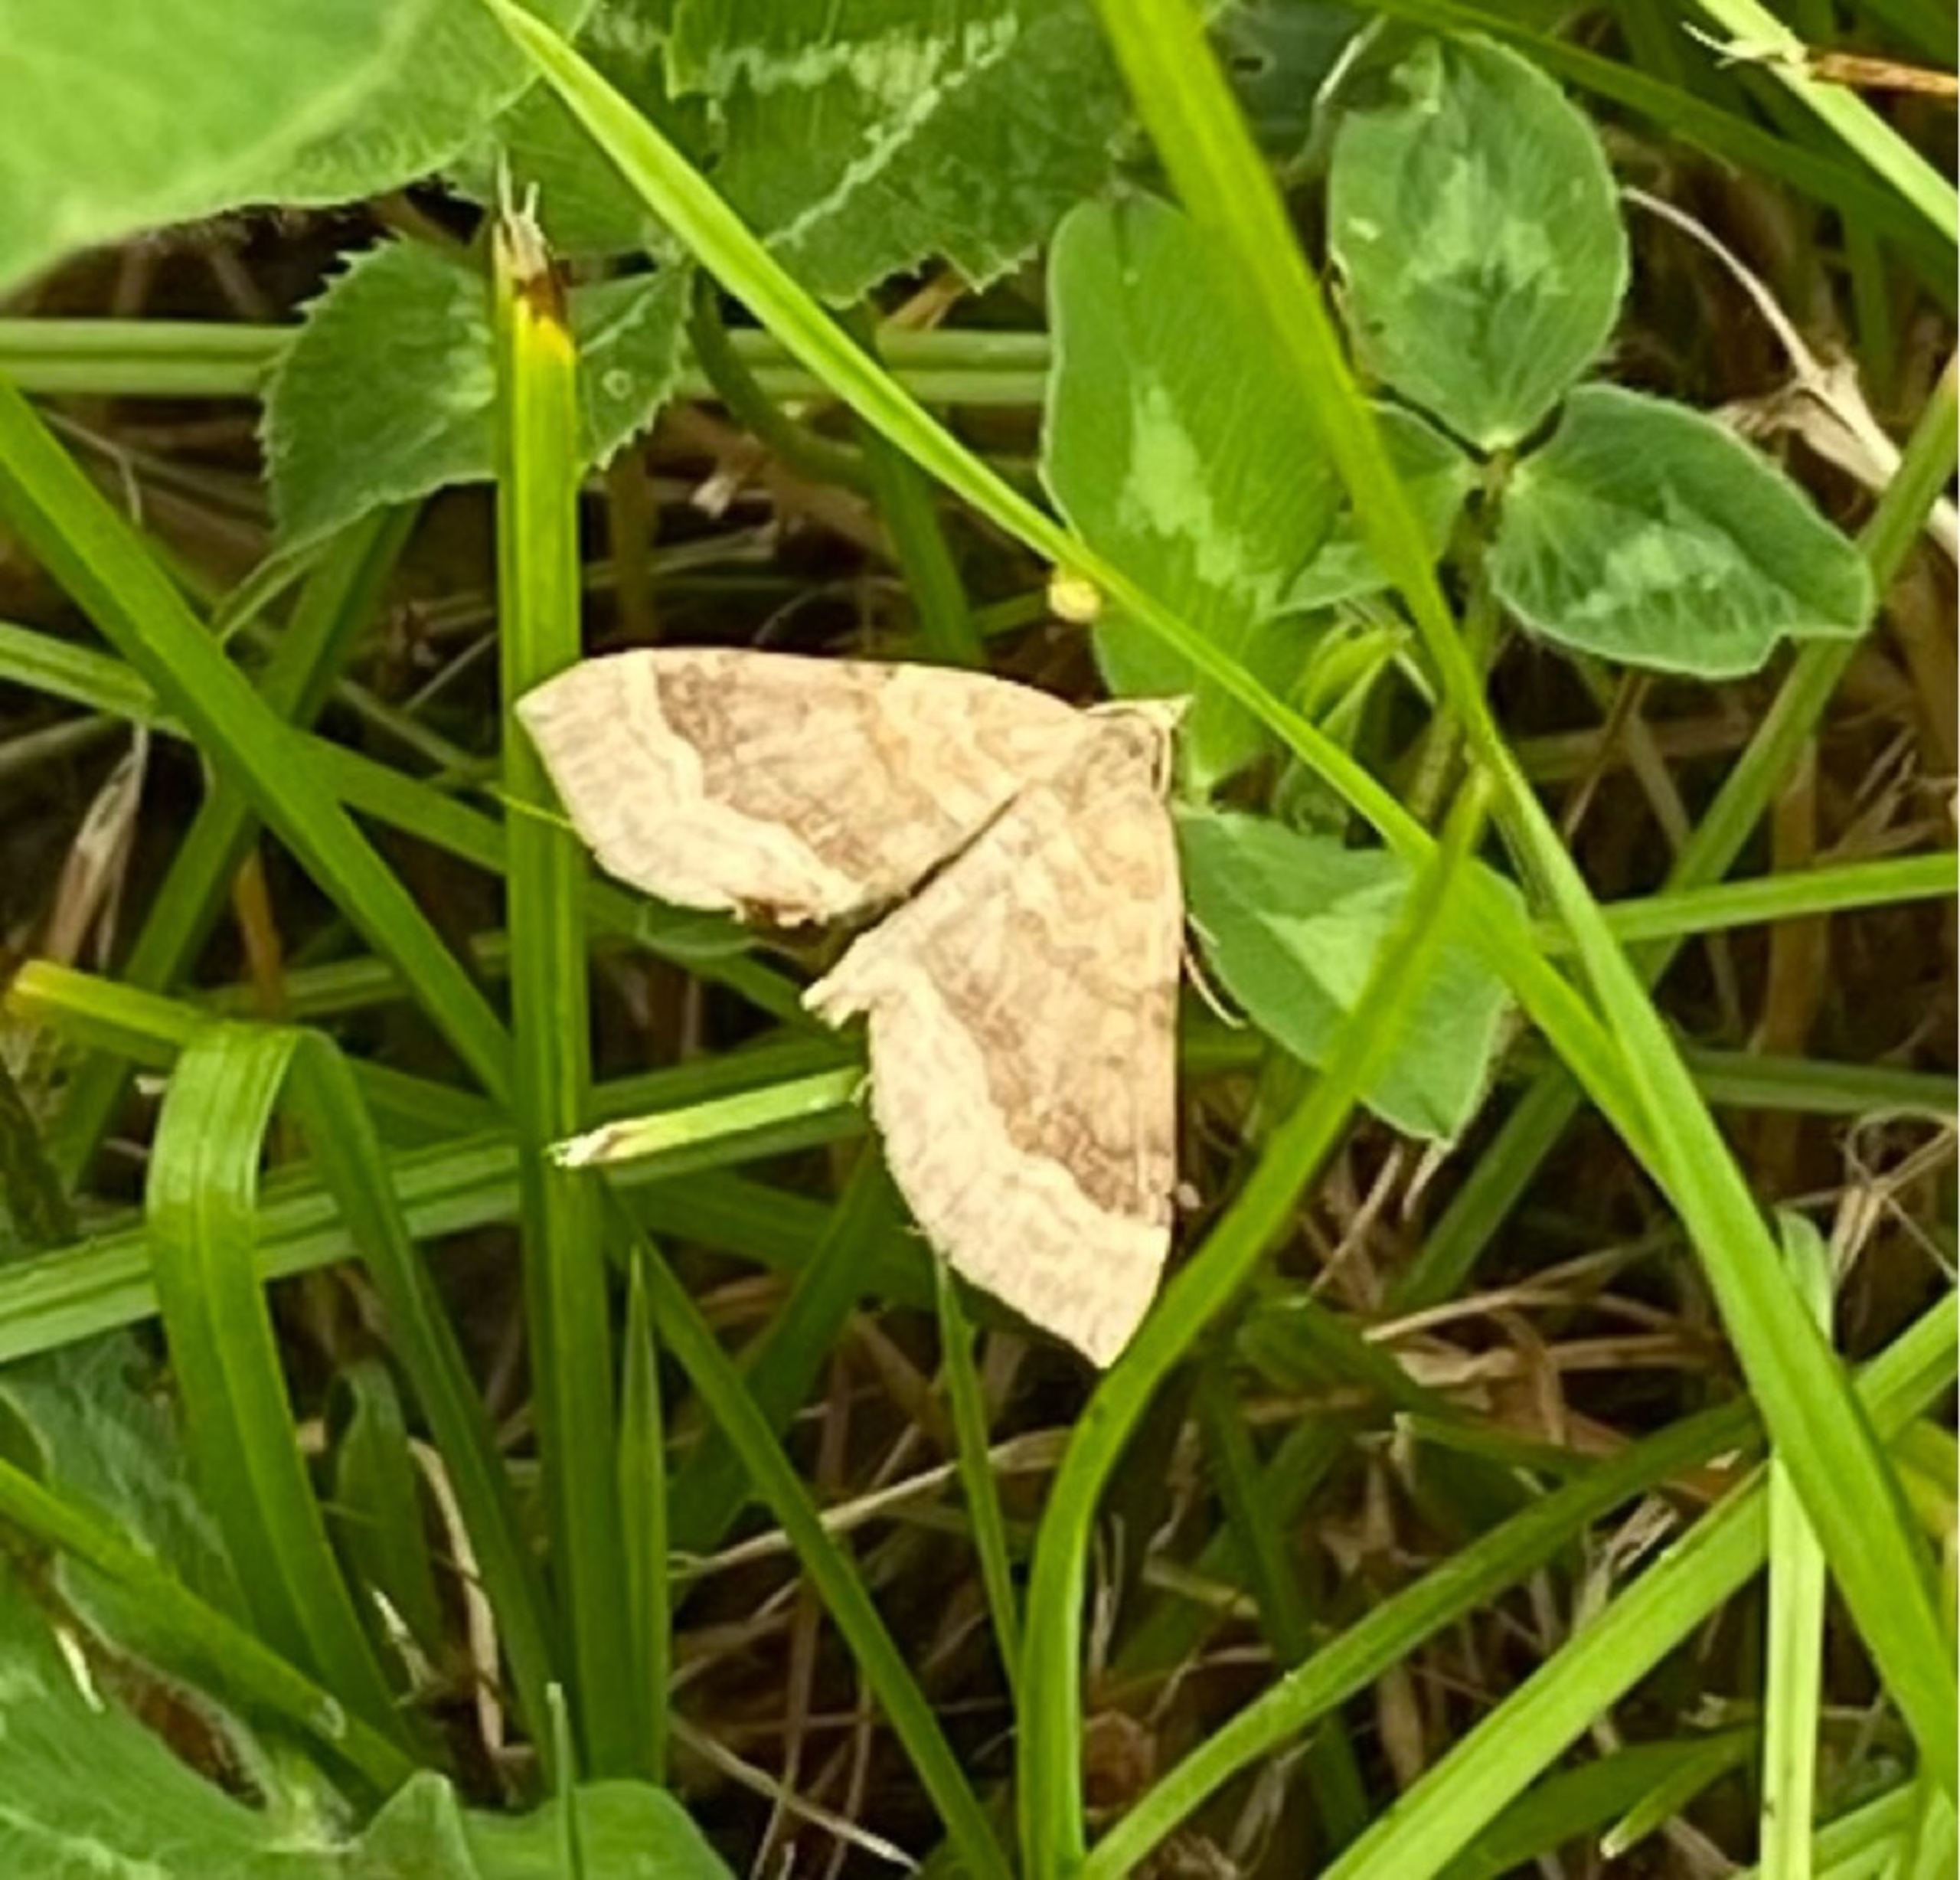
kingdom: Animalia
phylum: Arthropoda
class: Insecta
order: Lepidoptera
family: Geometridae
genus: Scotopteryx
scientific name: Scotopteryx chenopodiata
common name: Almindelig spidsvingemåler
